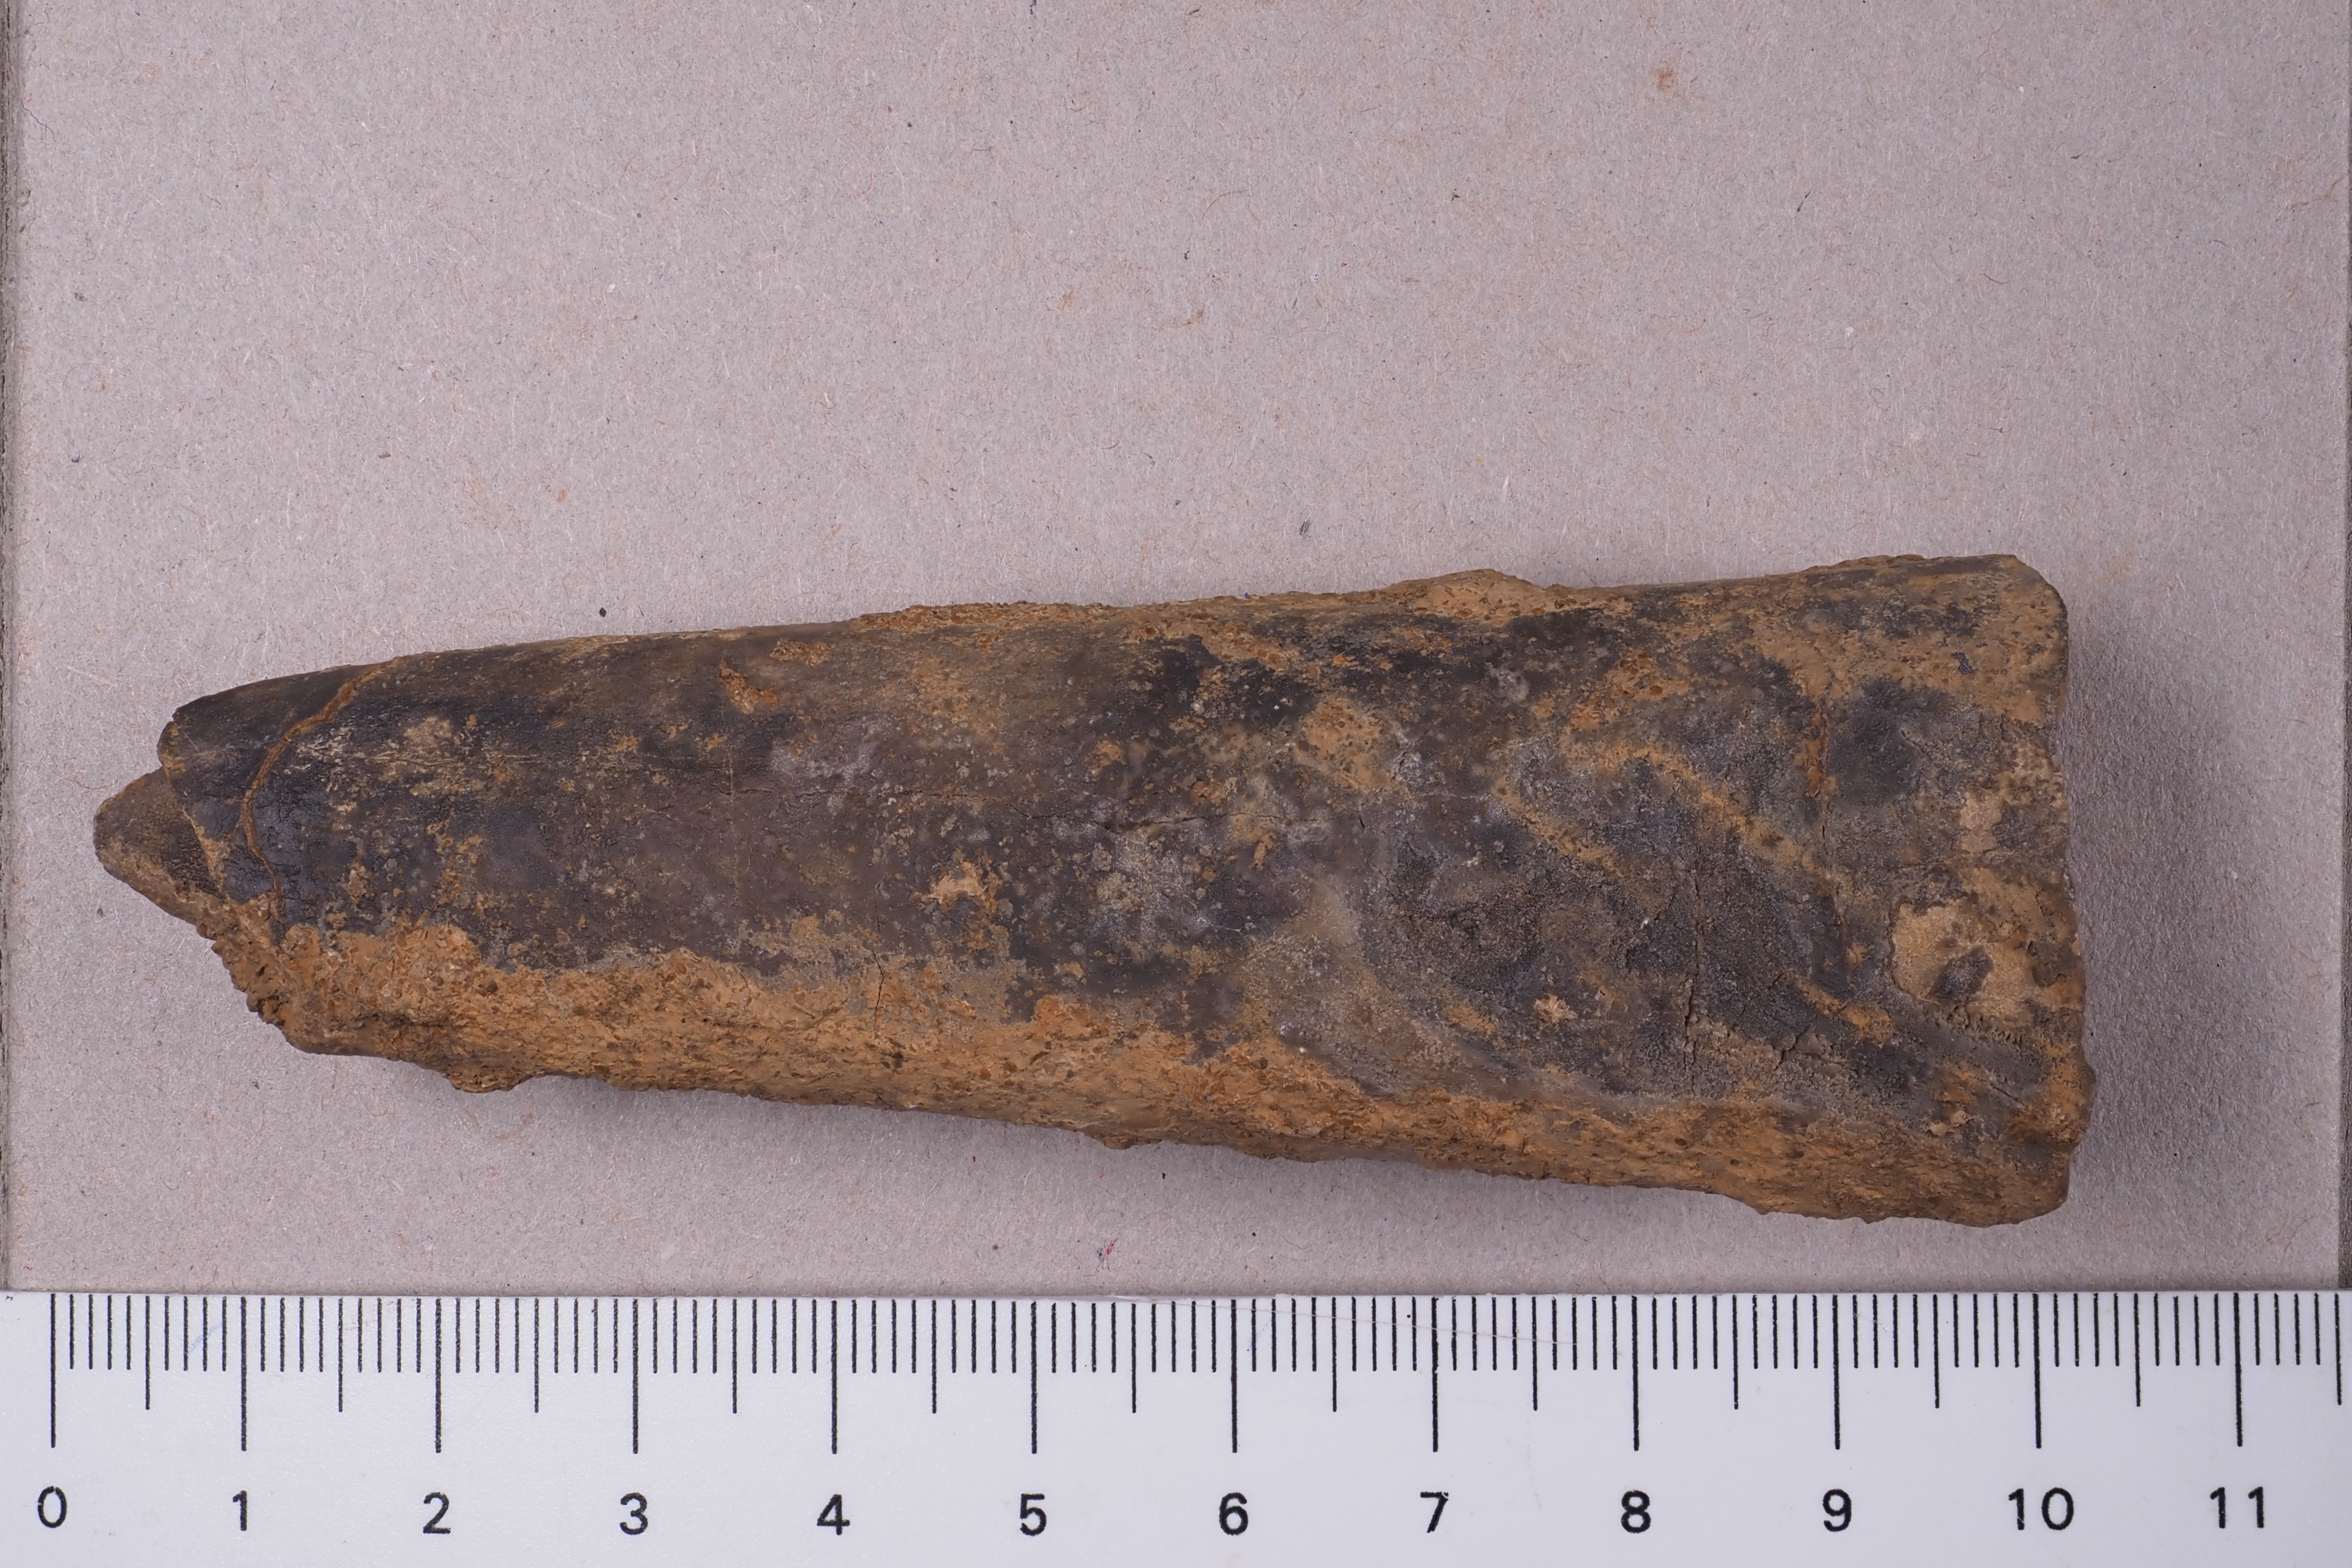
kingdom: Animalia
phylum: Mollusca
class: Cephalopoda
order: Belemnitida
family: Megateuthididae
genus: Megateuthis
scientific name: Megateuthis
